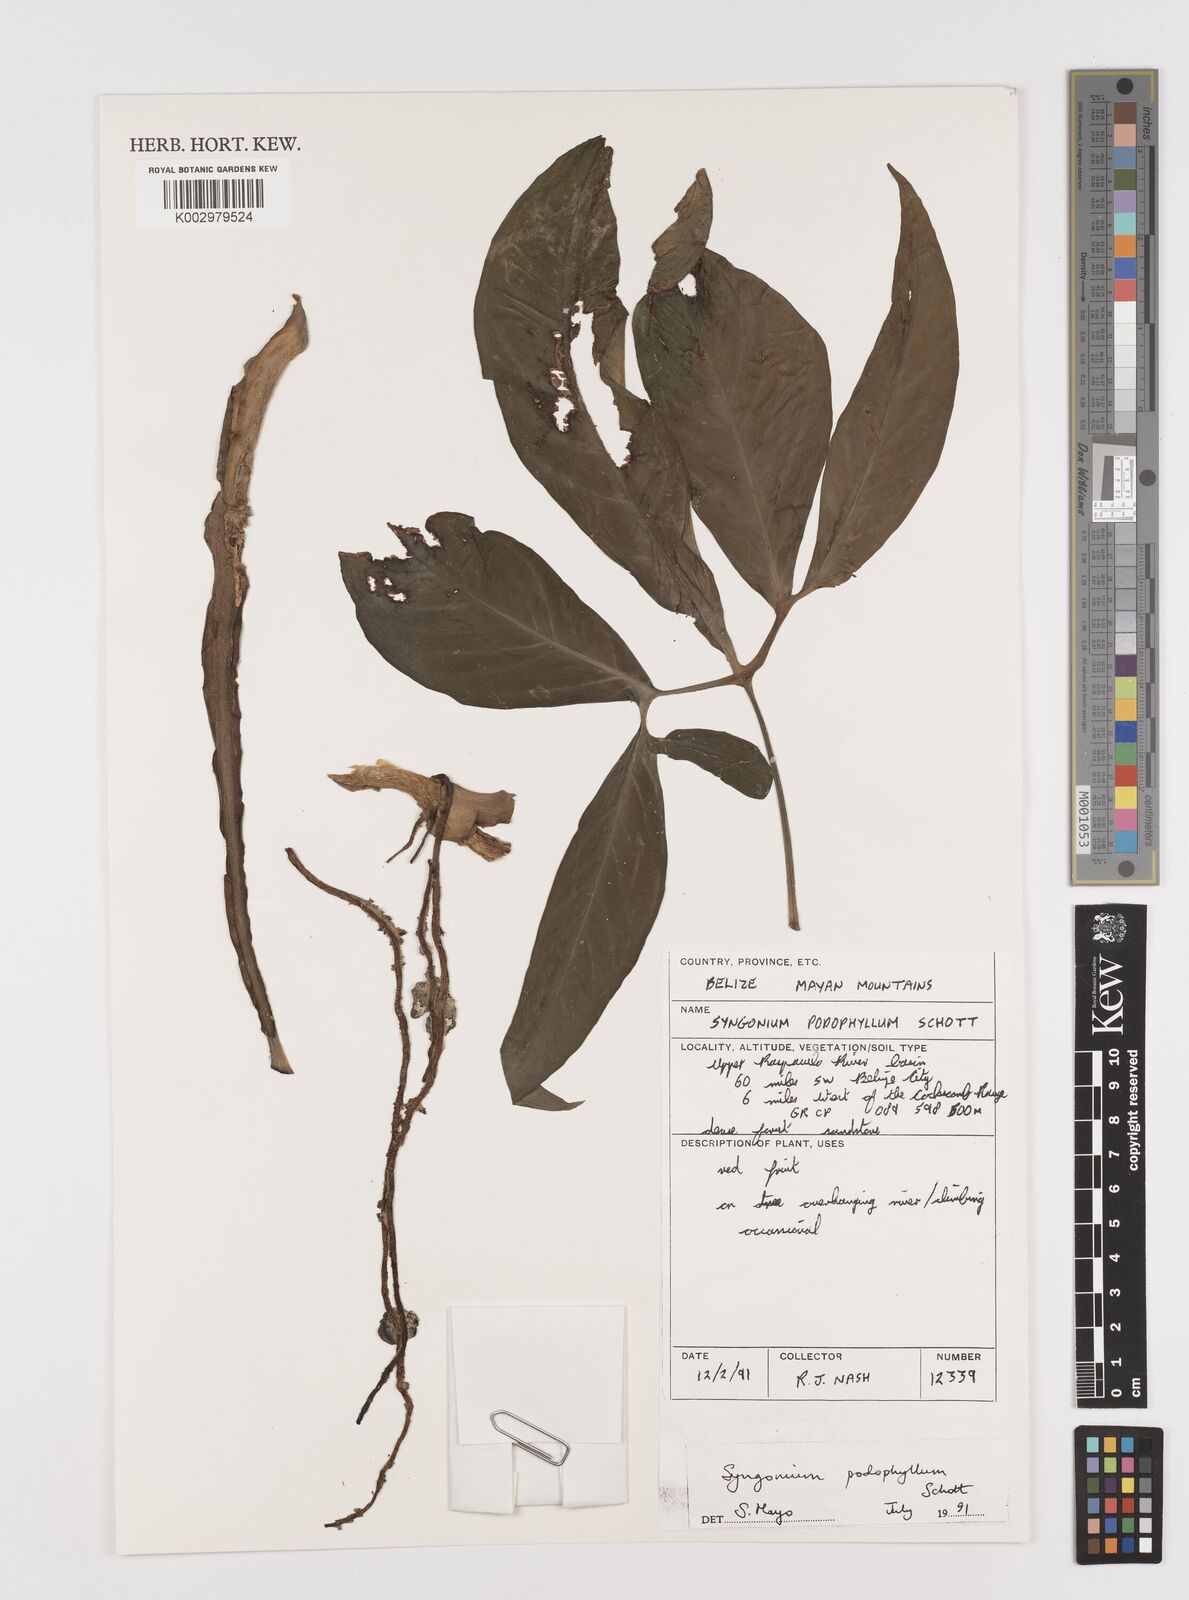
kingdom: Plantae
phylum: Tracheophyta
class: Liliopsida
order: Alismatales
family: Araceae
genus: Syngonium
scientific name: Syngonium podophyllum
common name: American evergreen
